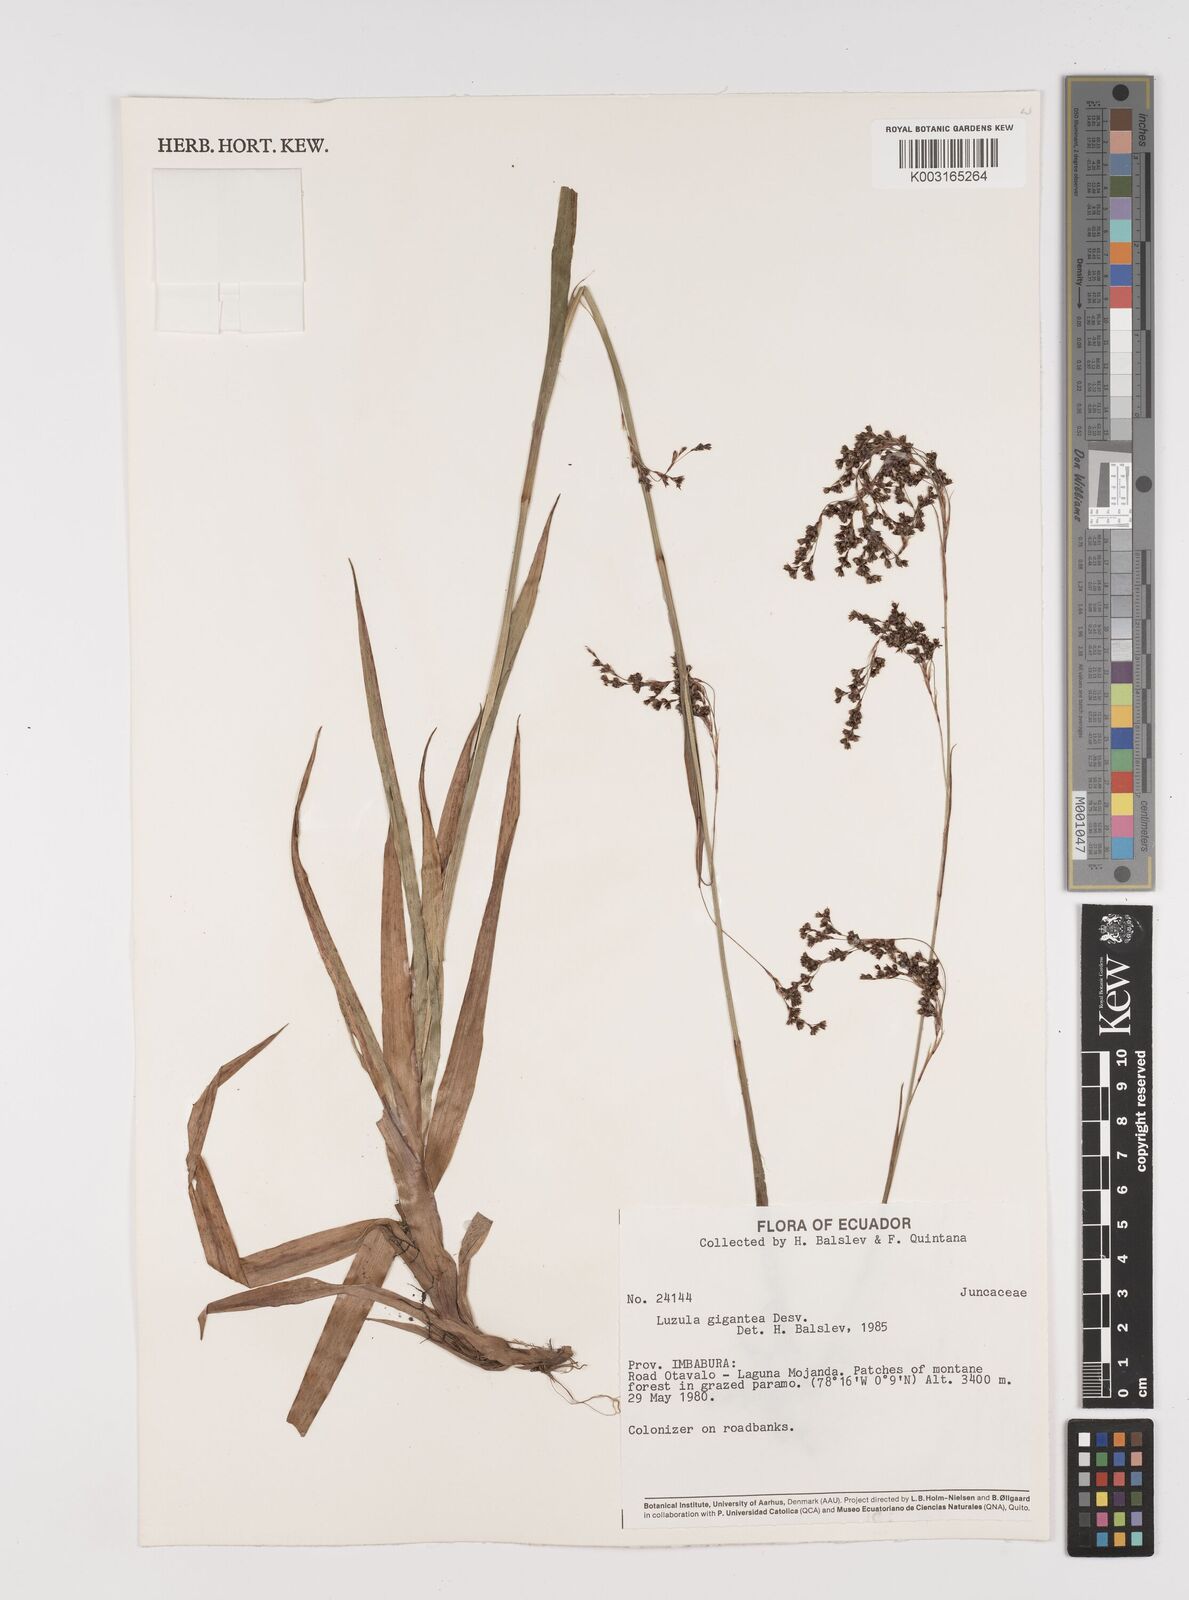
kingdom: Plantae
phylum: Tracheophyta
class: Liliopsida
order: Poales
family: Juncaceae
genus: Luzula
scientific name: Luzula gigantea
